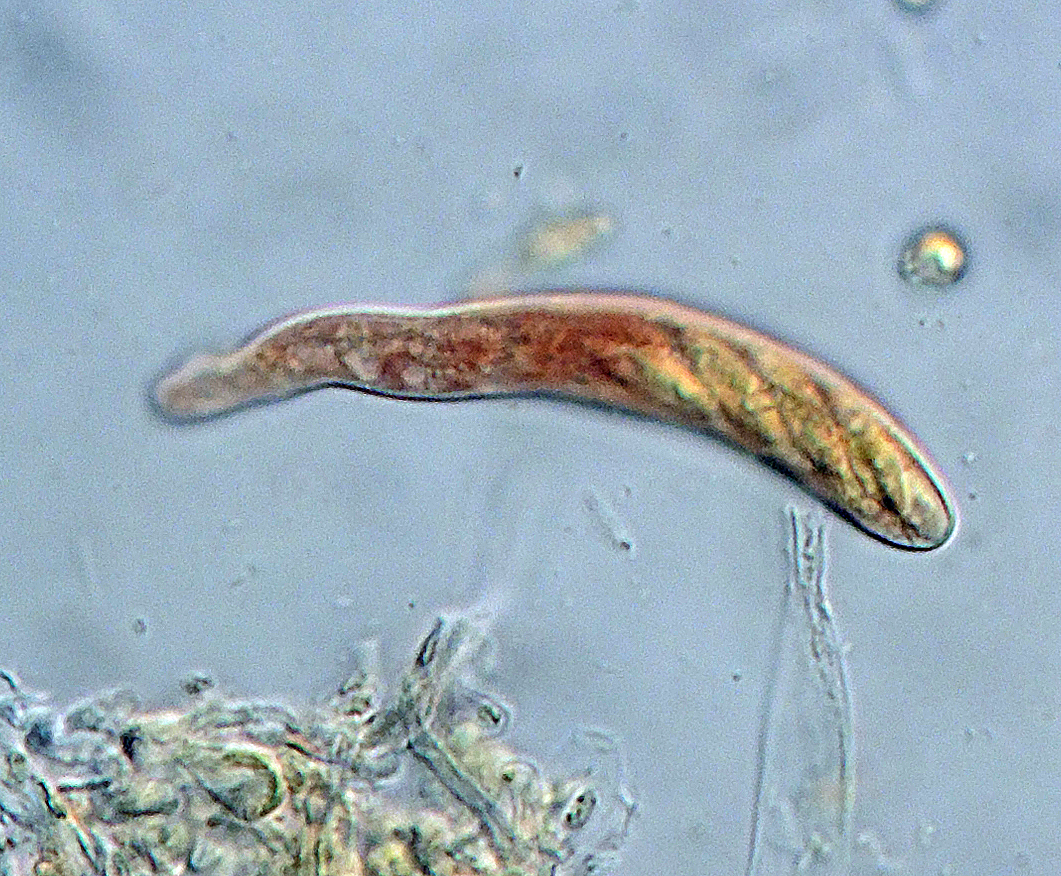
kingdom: Fungi
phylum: Ascomycota
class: Leotiomycetes
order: Helotiales
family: Hyaloscyphaceae
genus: Hyaloscypha
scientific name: Hyaloscypha minuta
